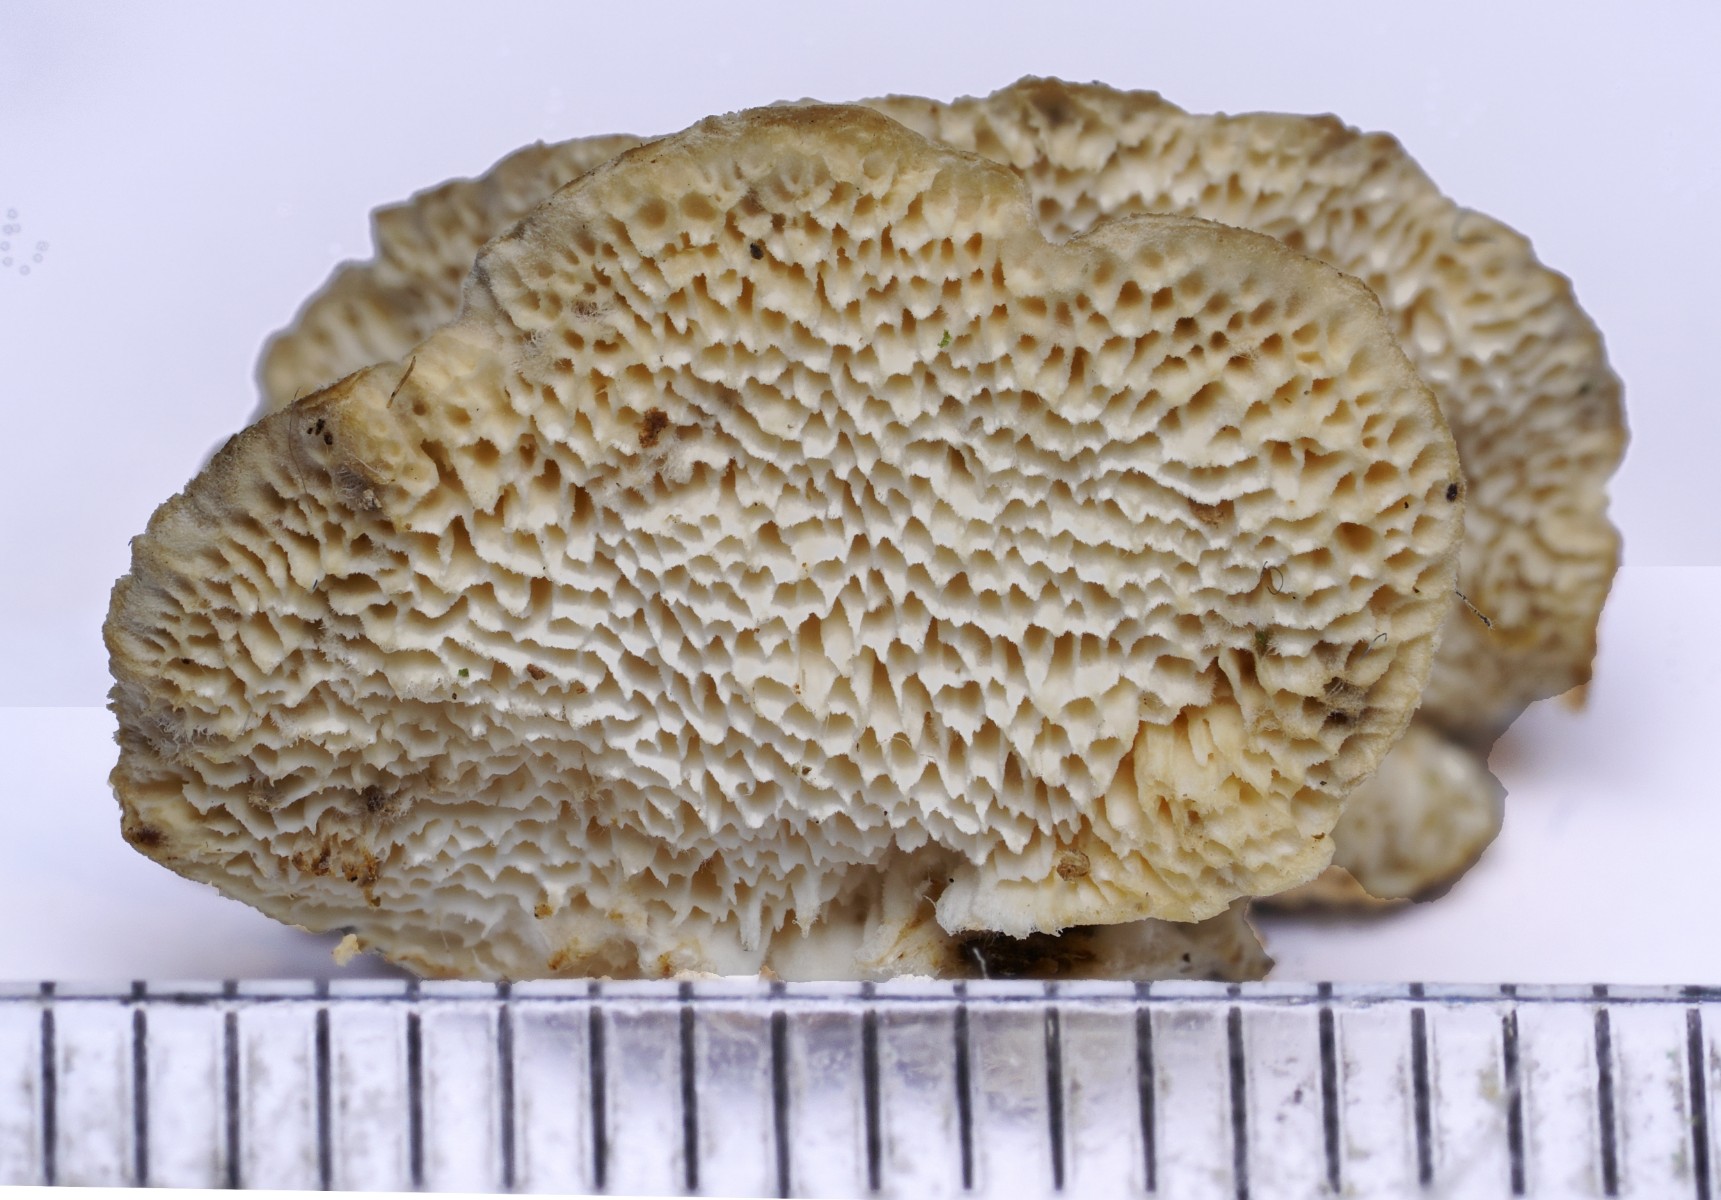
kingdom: Fungi
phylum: Basidiomycota
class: Agaricomycetes
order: Polyporales
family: Polyporaceae
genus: Trametes
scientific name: Trametes hirsuta
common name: håret læderporesvamp
